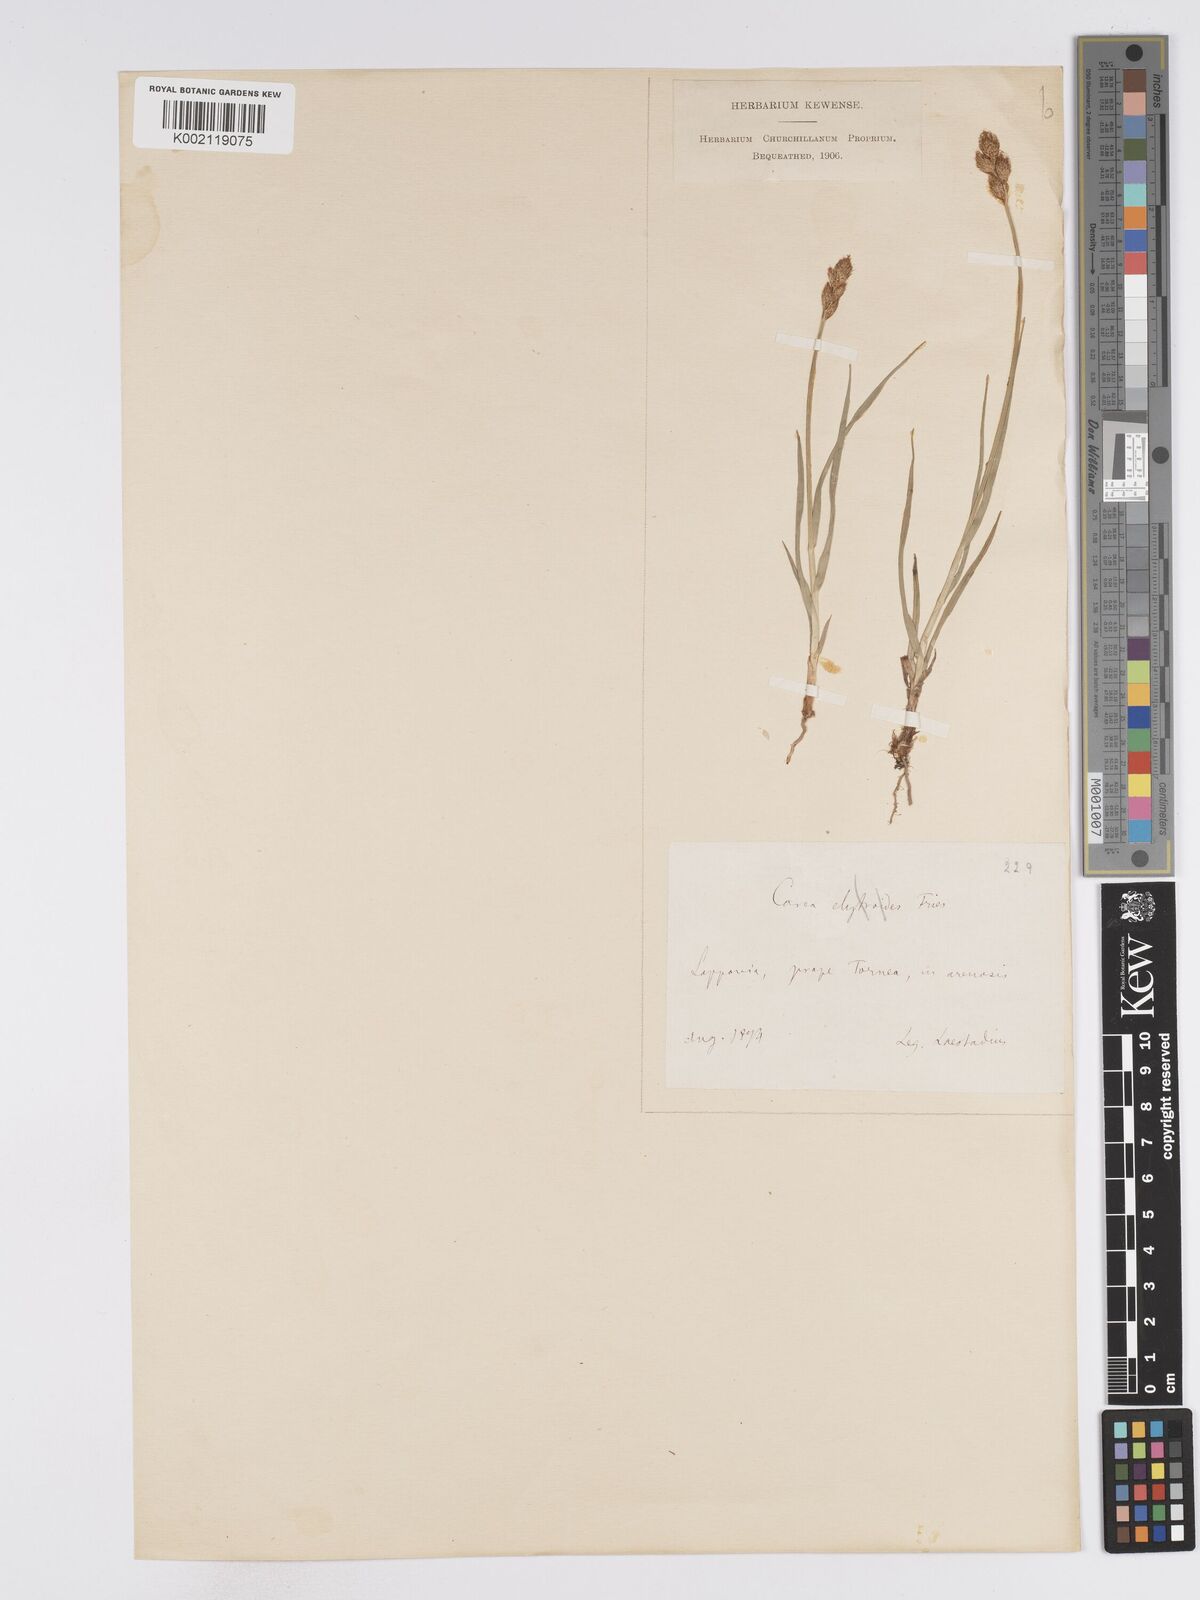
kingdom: Plantae
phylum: Tracheophyta
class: Liliopsida
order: Poales
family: Cyperaceae
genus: Carex
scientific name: Carex leporina
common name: Oval sedge
